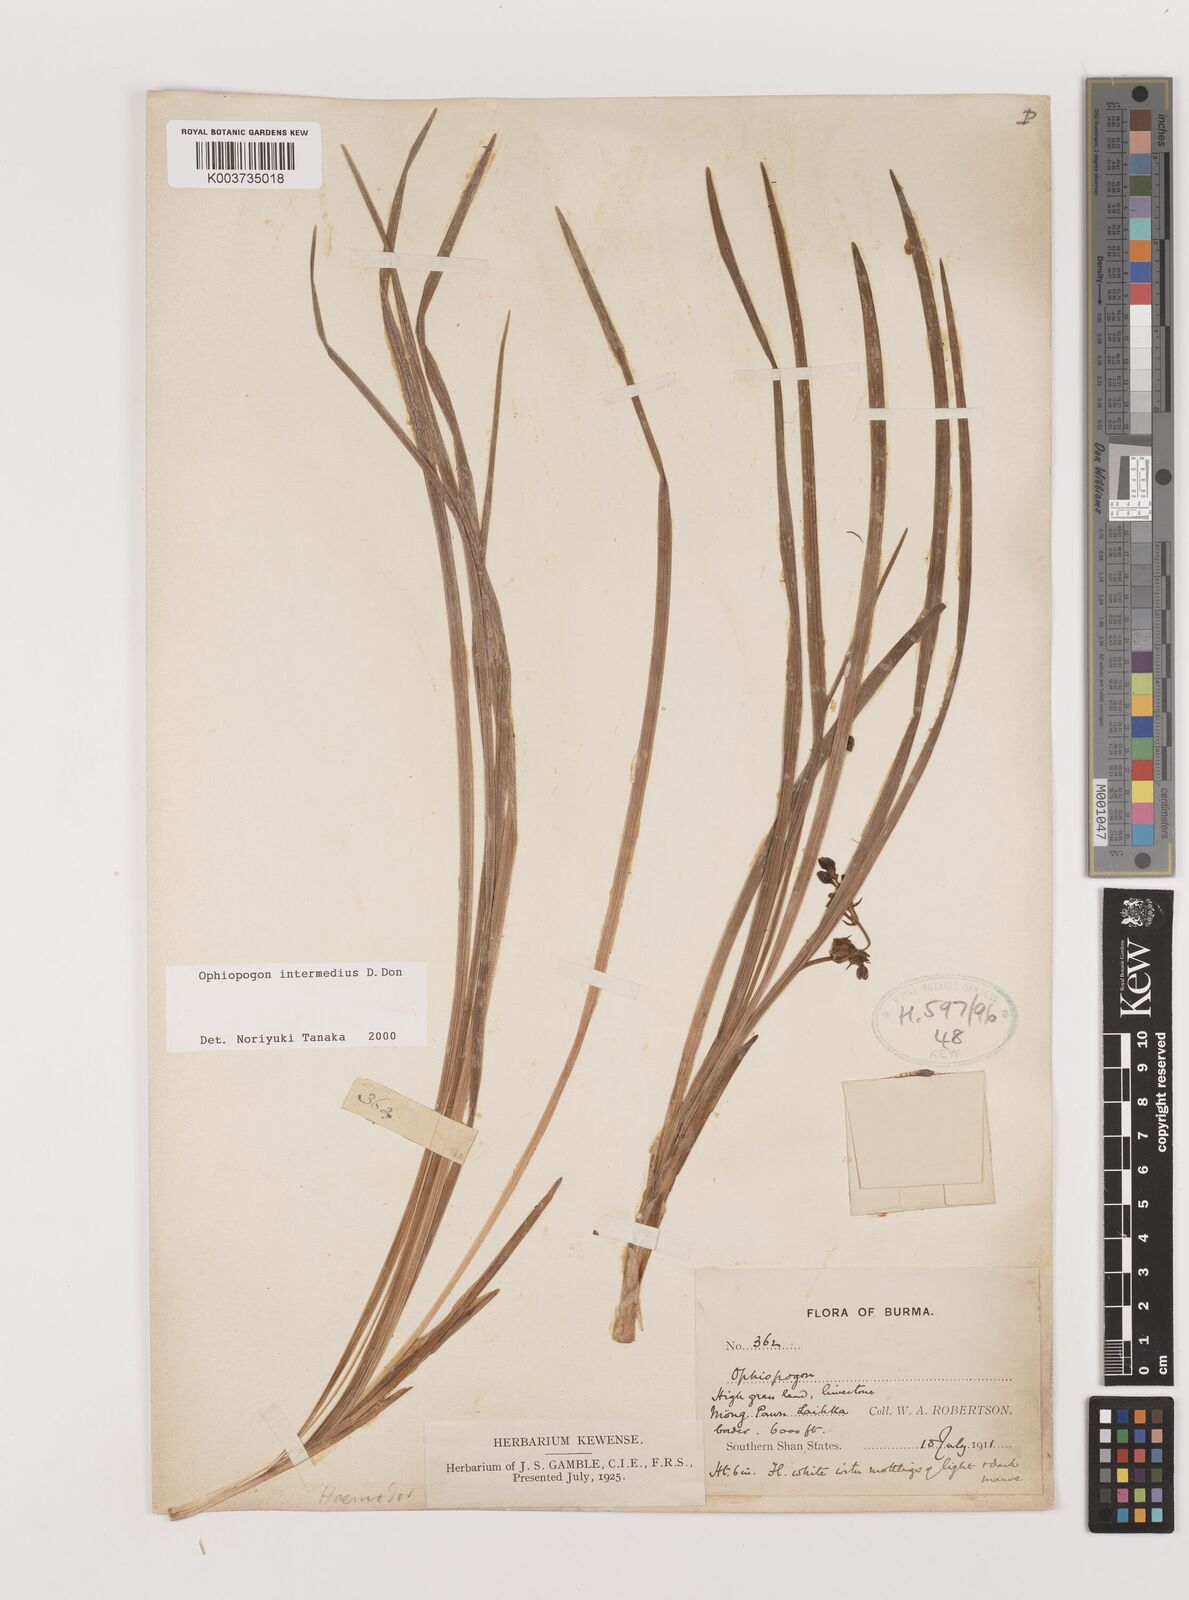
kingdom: Plantae
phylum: Tracheophyta
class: Liliopsida
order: Asparagales
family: Asparagaceae
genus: Ophiopogon
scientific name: Ophiopogon intermedius
